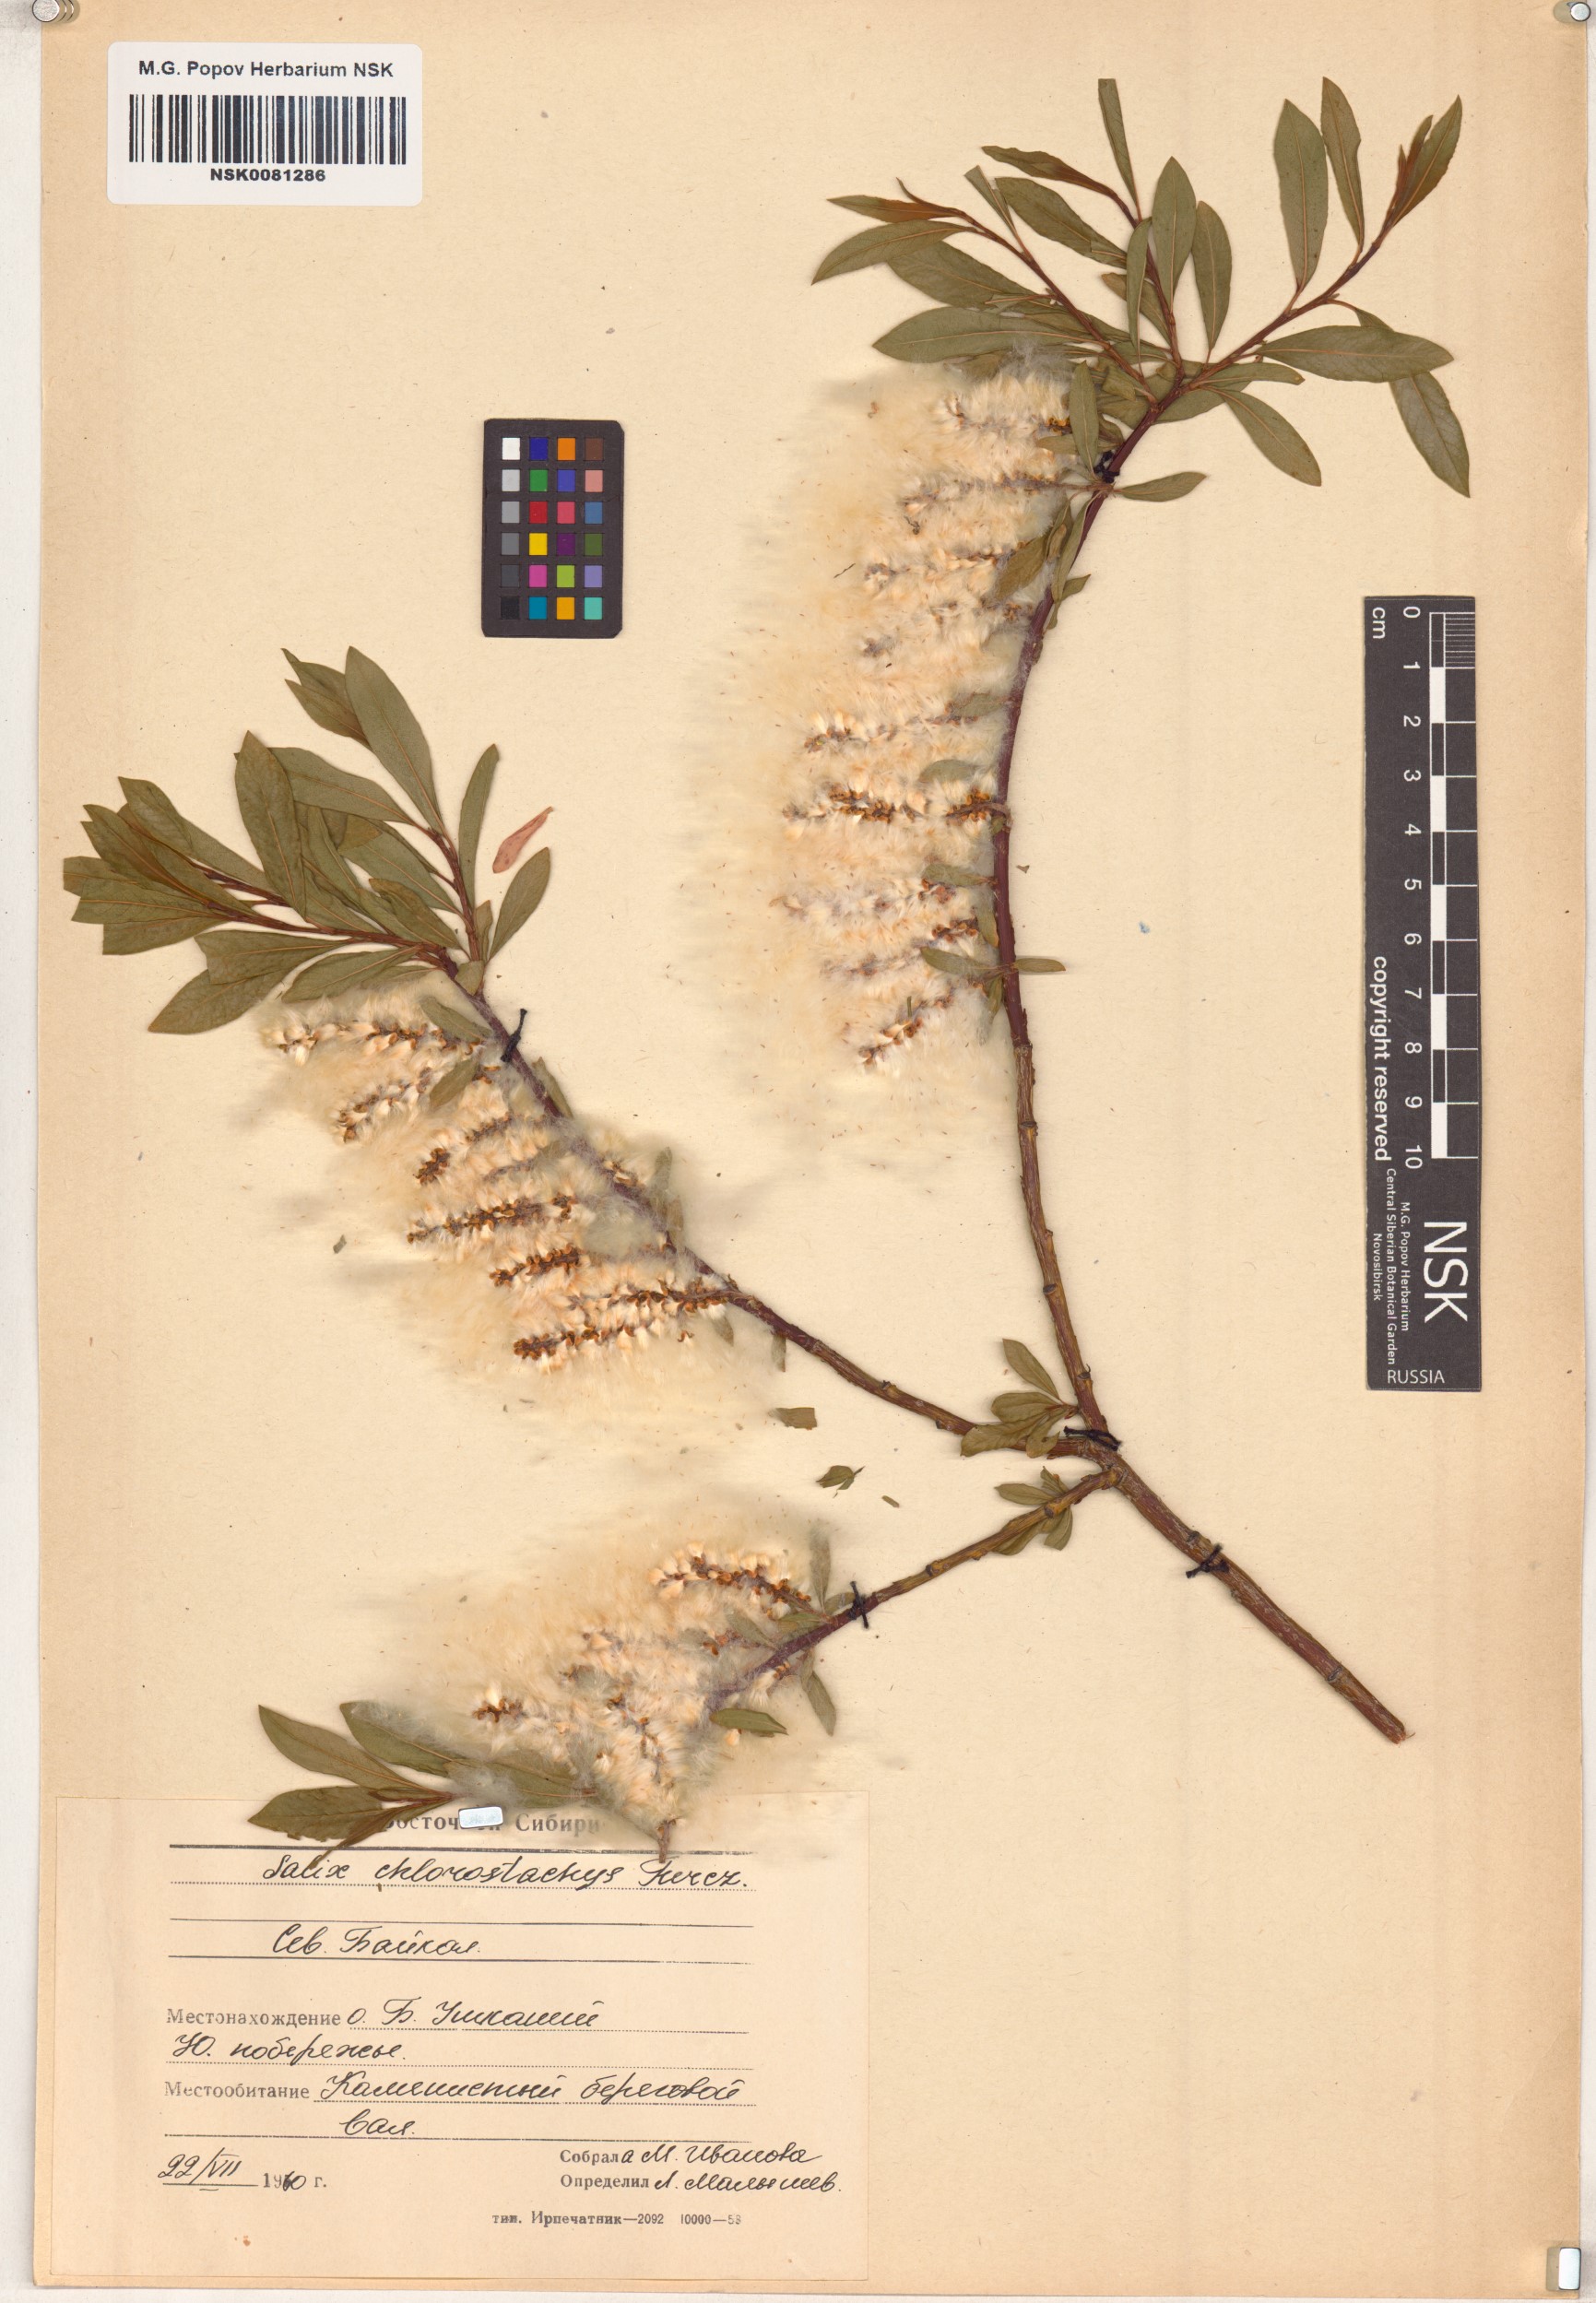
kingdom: Plantae
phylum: Tracheophyta
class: Magnoliopsida
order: Malpighiales
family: Salicaceae
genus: Salix
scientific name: Salix rhamnifolia
